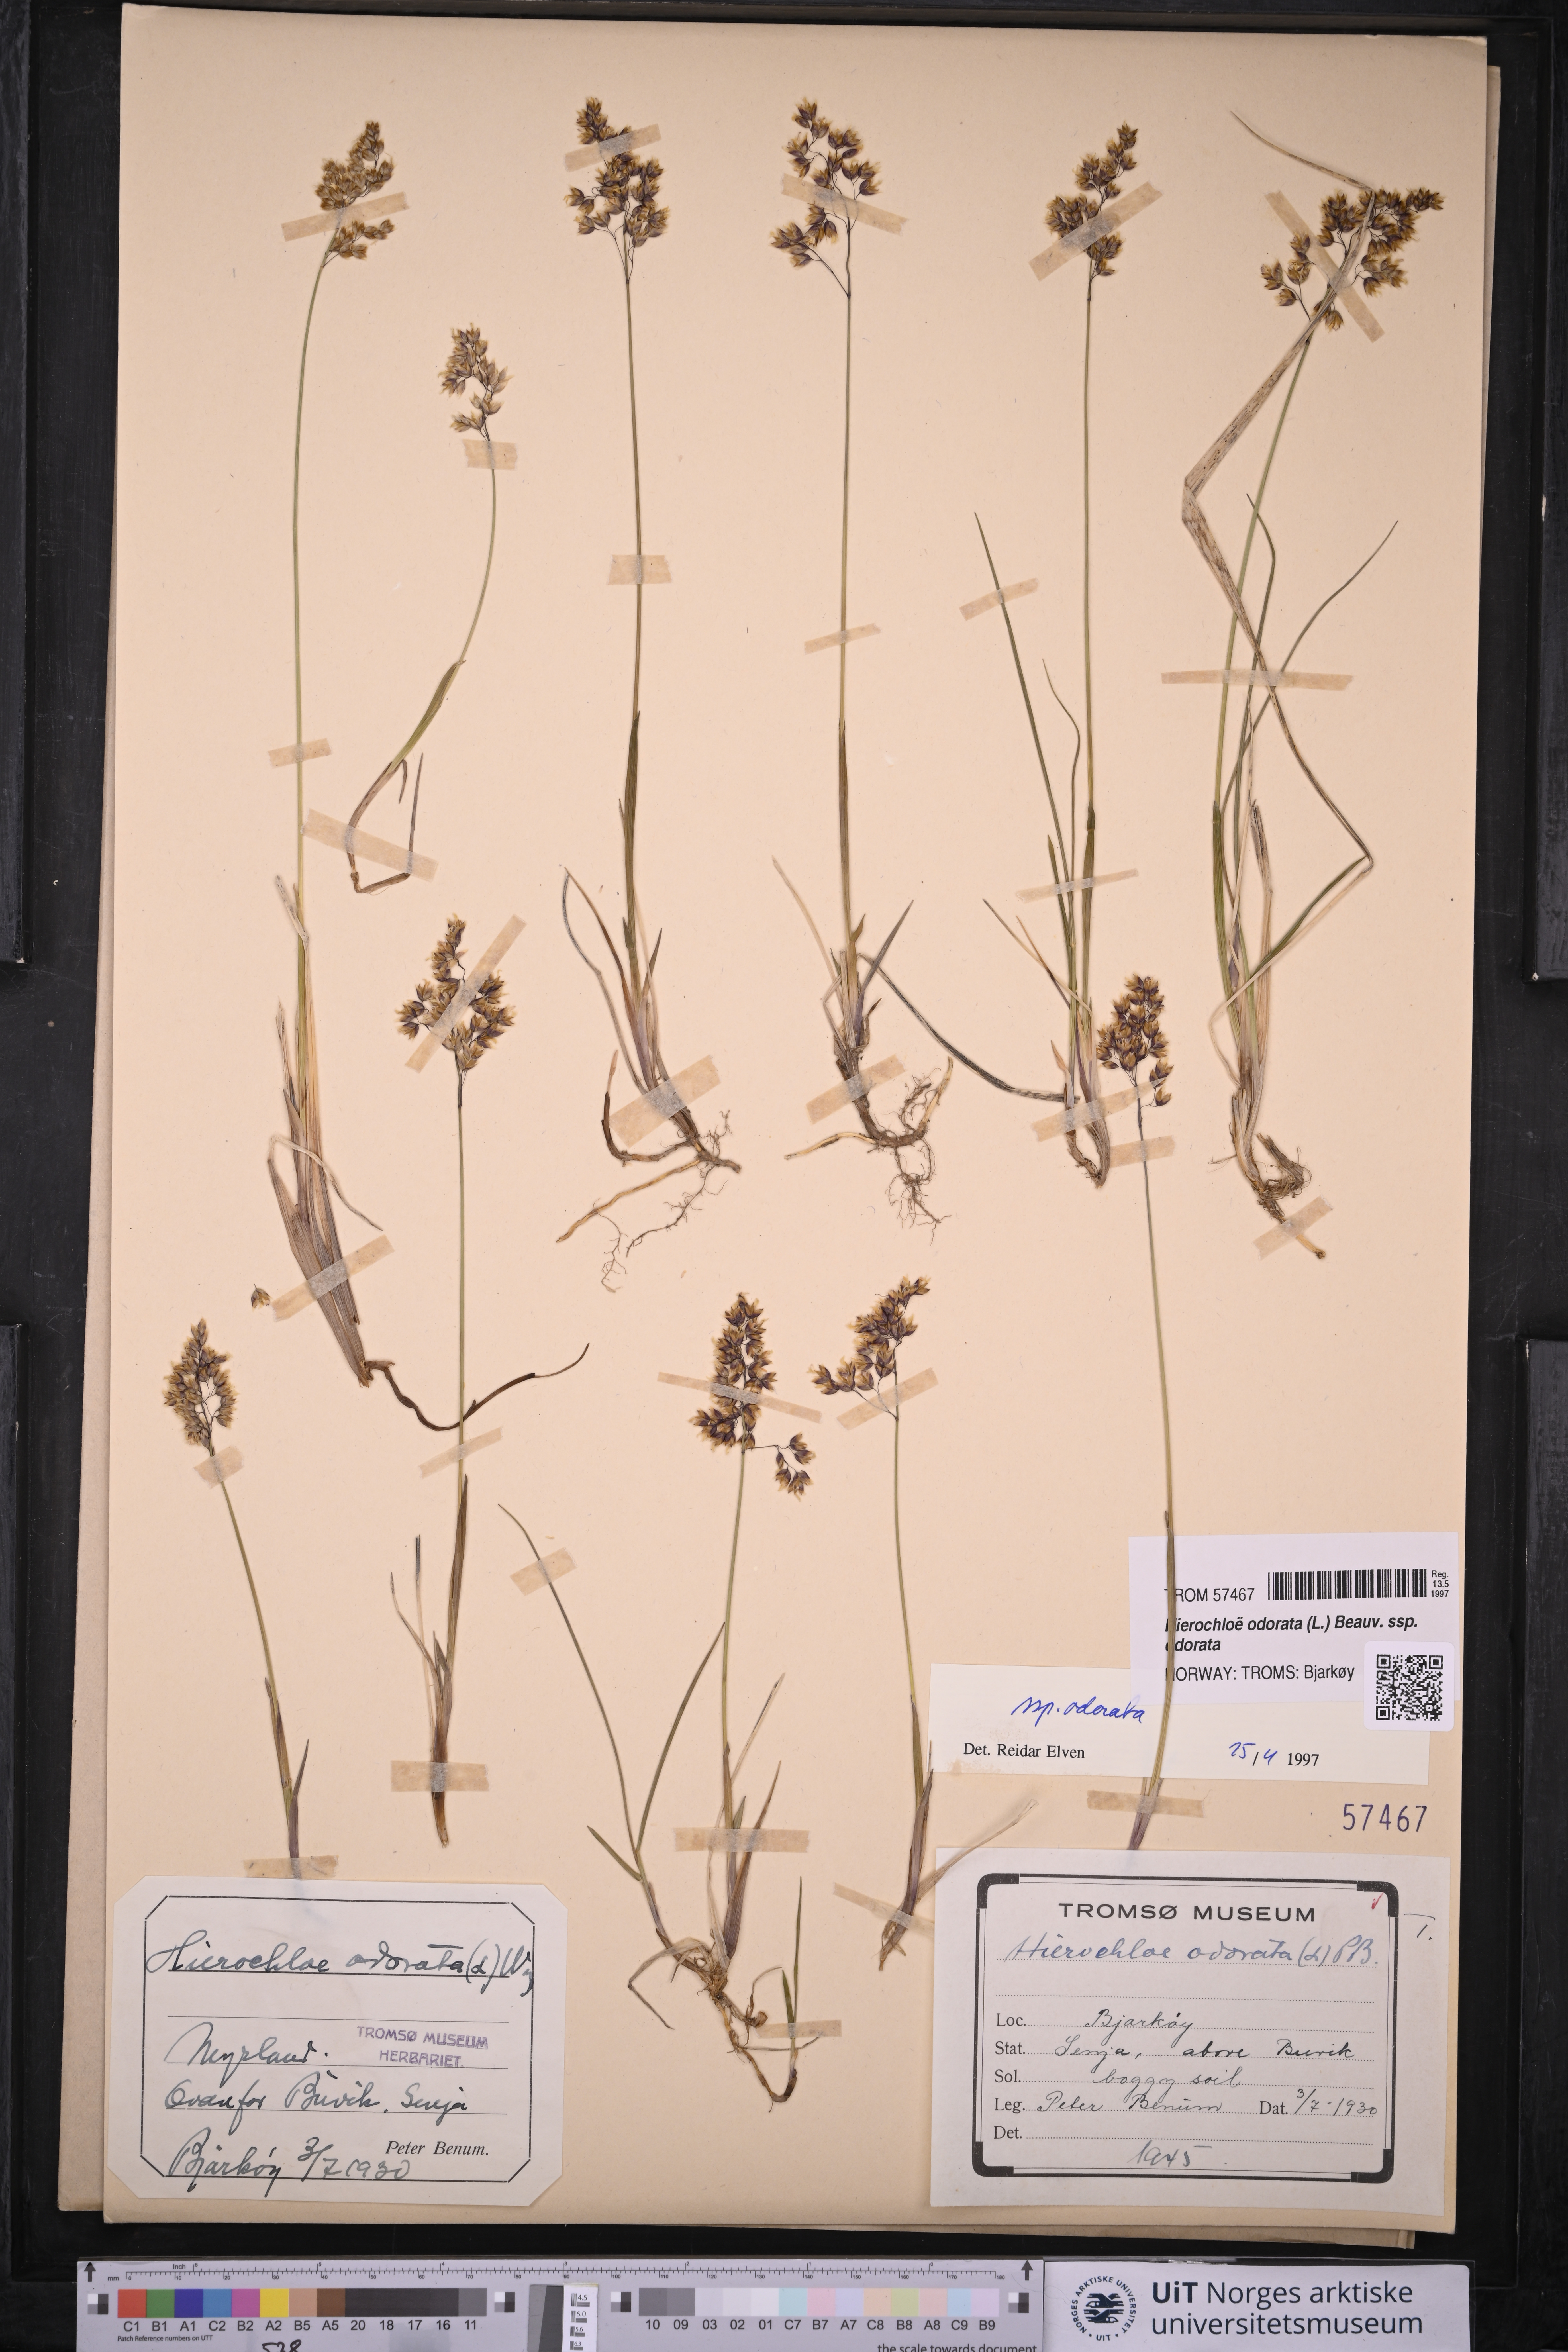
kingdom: Plantae
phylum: Tracheophyta
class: Liliopsida
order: Poales
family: Poaceae
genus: Anthoxanthum
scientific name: Anthoxanthum nitens
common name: Holy grass
